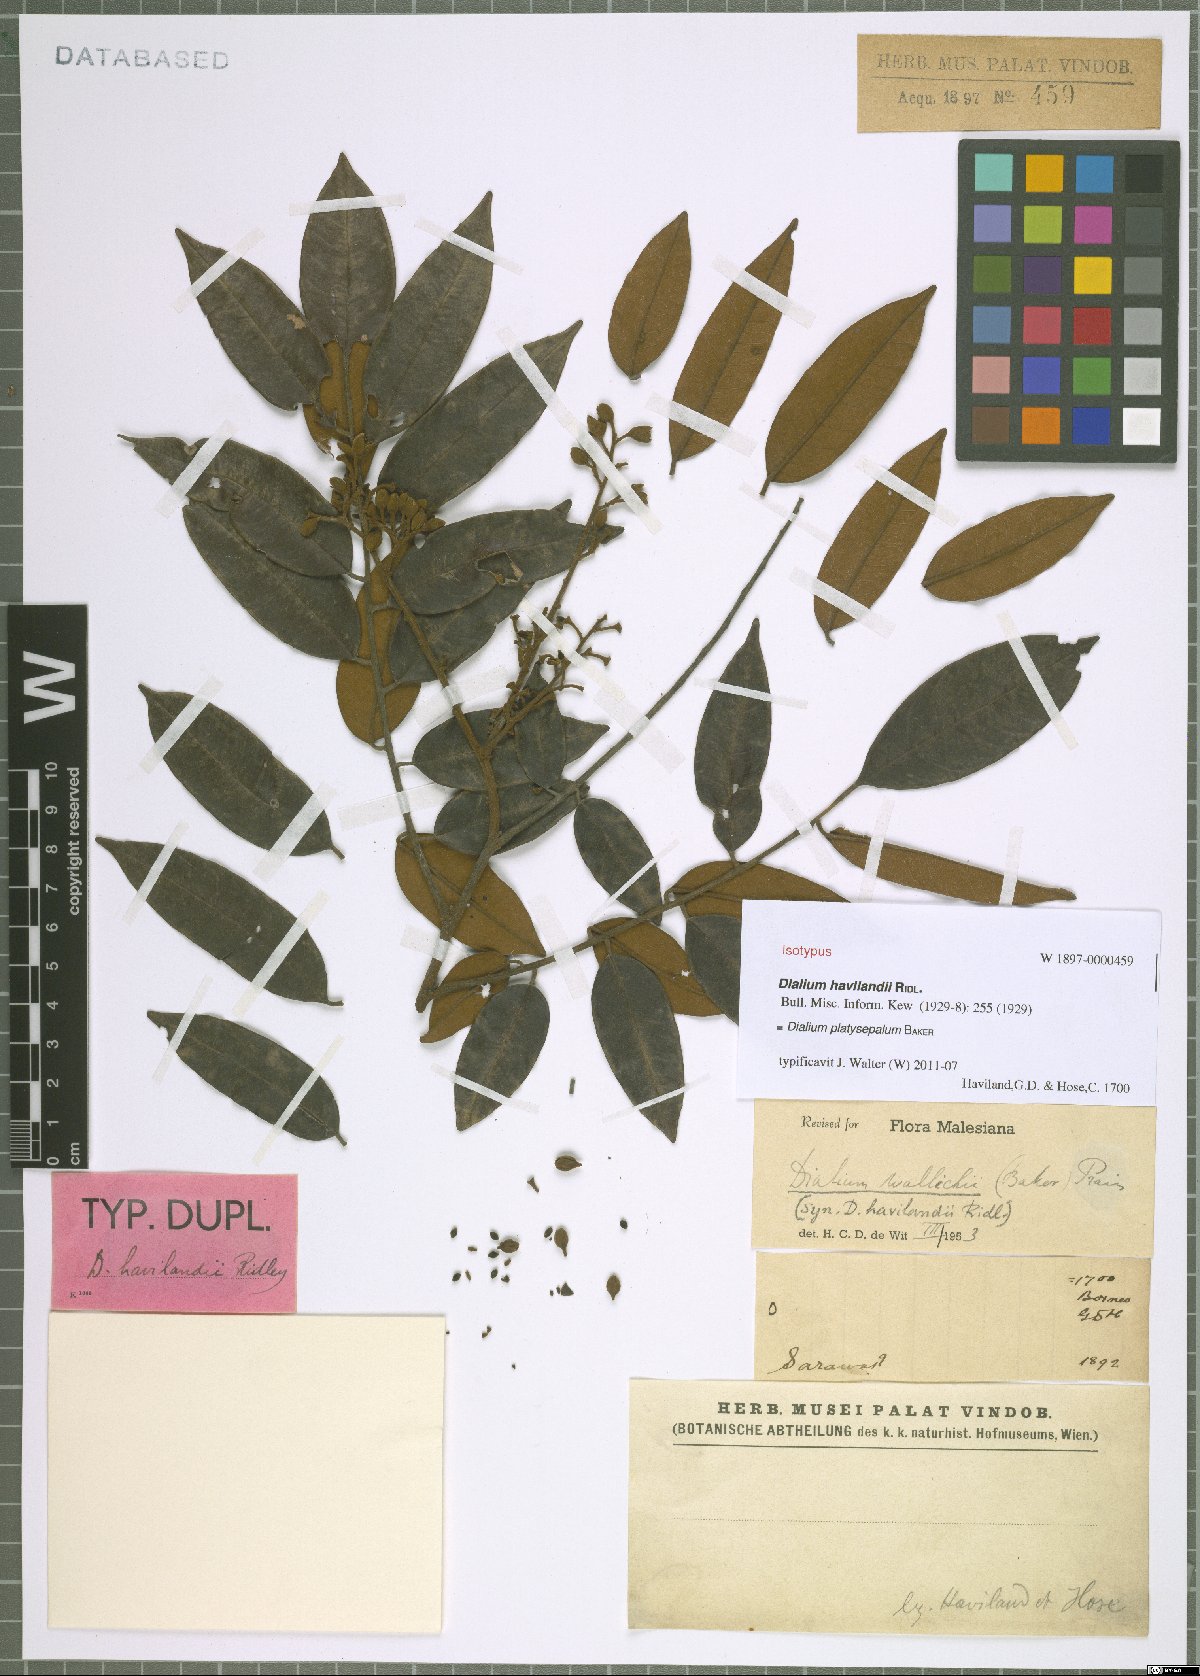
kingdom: Plantae
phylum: Tracheophyta
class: Magnoliopsida
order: Fabales
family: Fabaceae
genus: Dialium
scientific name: Dialium platysepalum
